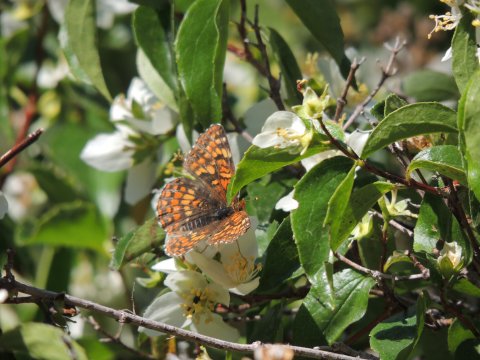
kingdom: Animalia
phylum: Arthropoda
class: Insecta
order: Lepidoptera
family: Nymphalidae
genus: Chlosyne
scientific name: Chlosyne palla
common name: Northern Checkerspot
